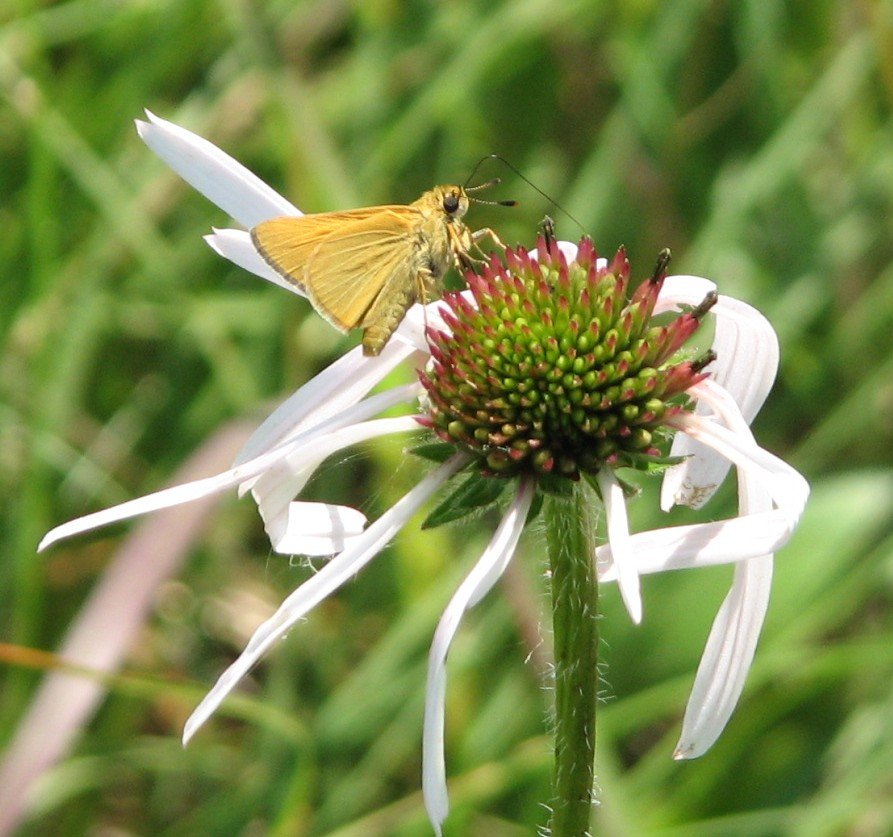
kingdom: Animalia
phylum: Arthropoda
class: Insecta
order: Lepidoptera
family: Hesperiidae
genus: Atrytone
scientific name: Atrytone arogos
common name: Arogos Skipper
